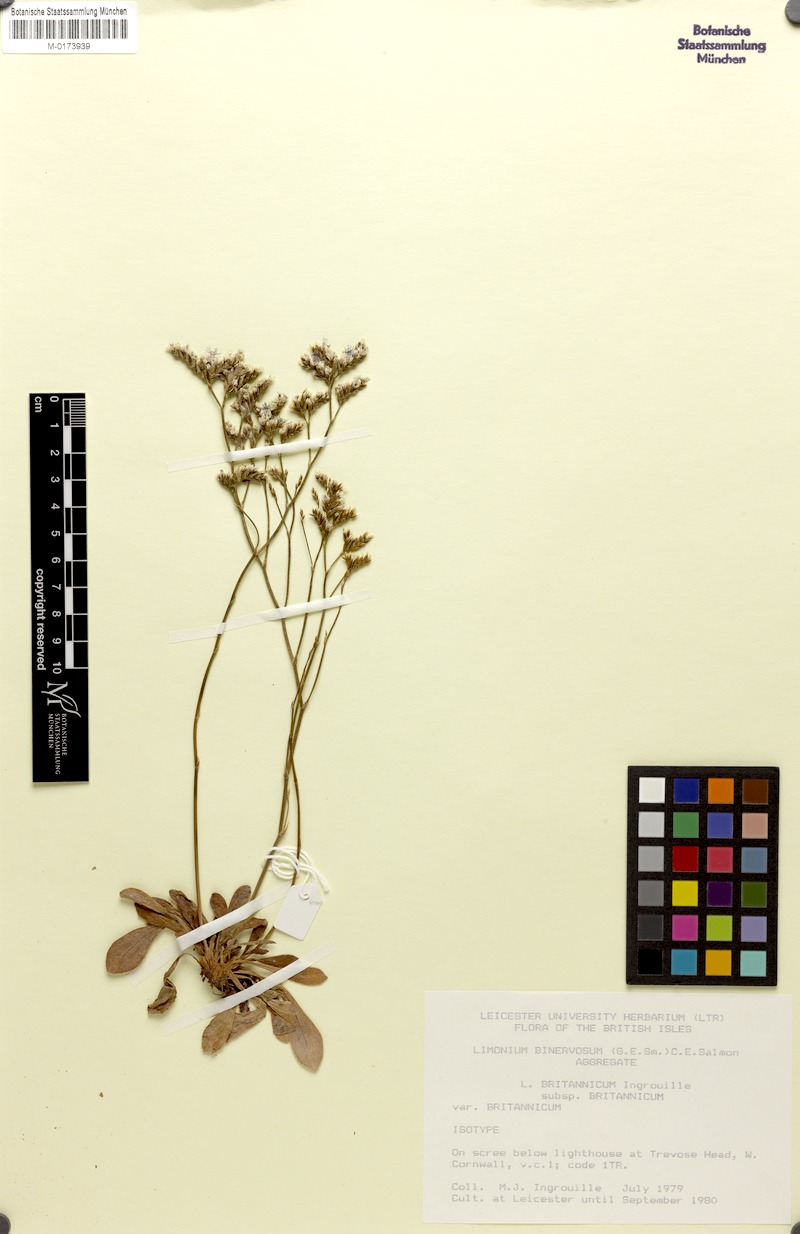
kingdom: Plantae
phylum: Tracheophyta
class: Magnoliopsida
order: Caryophyllales
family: Plumbaginaceae
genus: Limonium
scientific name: Limonium britannicum
